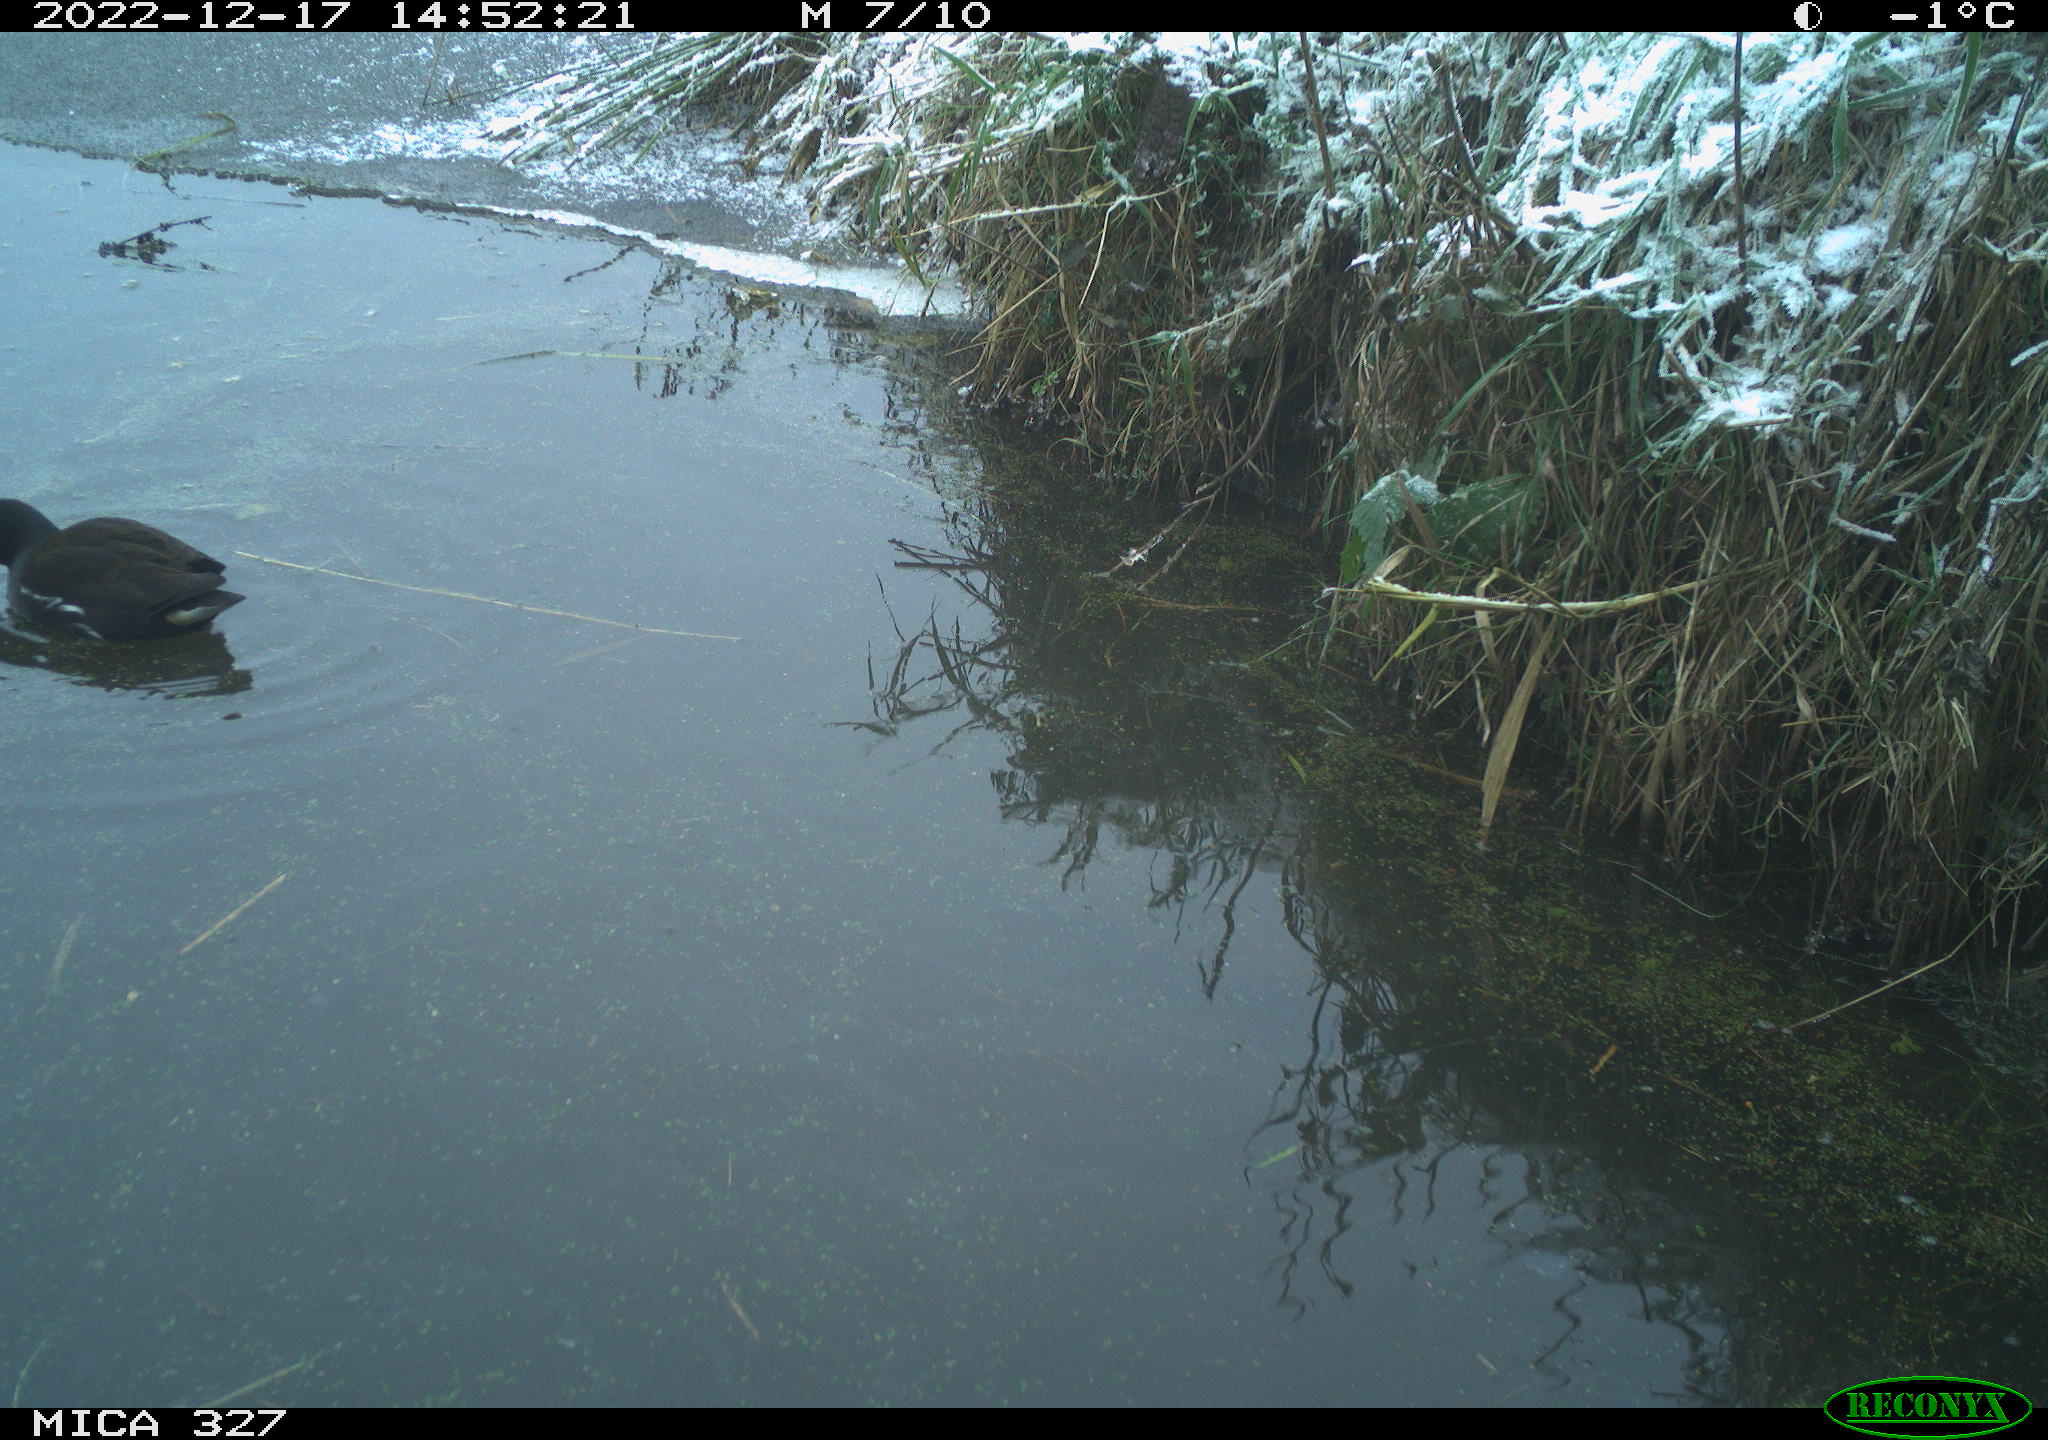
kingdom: Animalia
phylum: Chordata
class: Aves
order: Gruiformes
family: Rallidae
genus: Gallinula
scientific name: Gallinula chloropus
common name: Common moorhen
